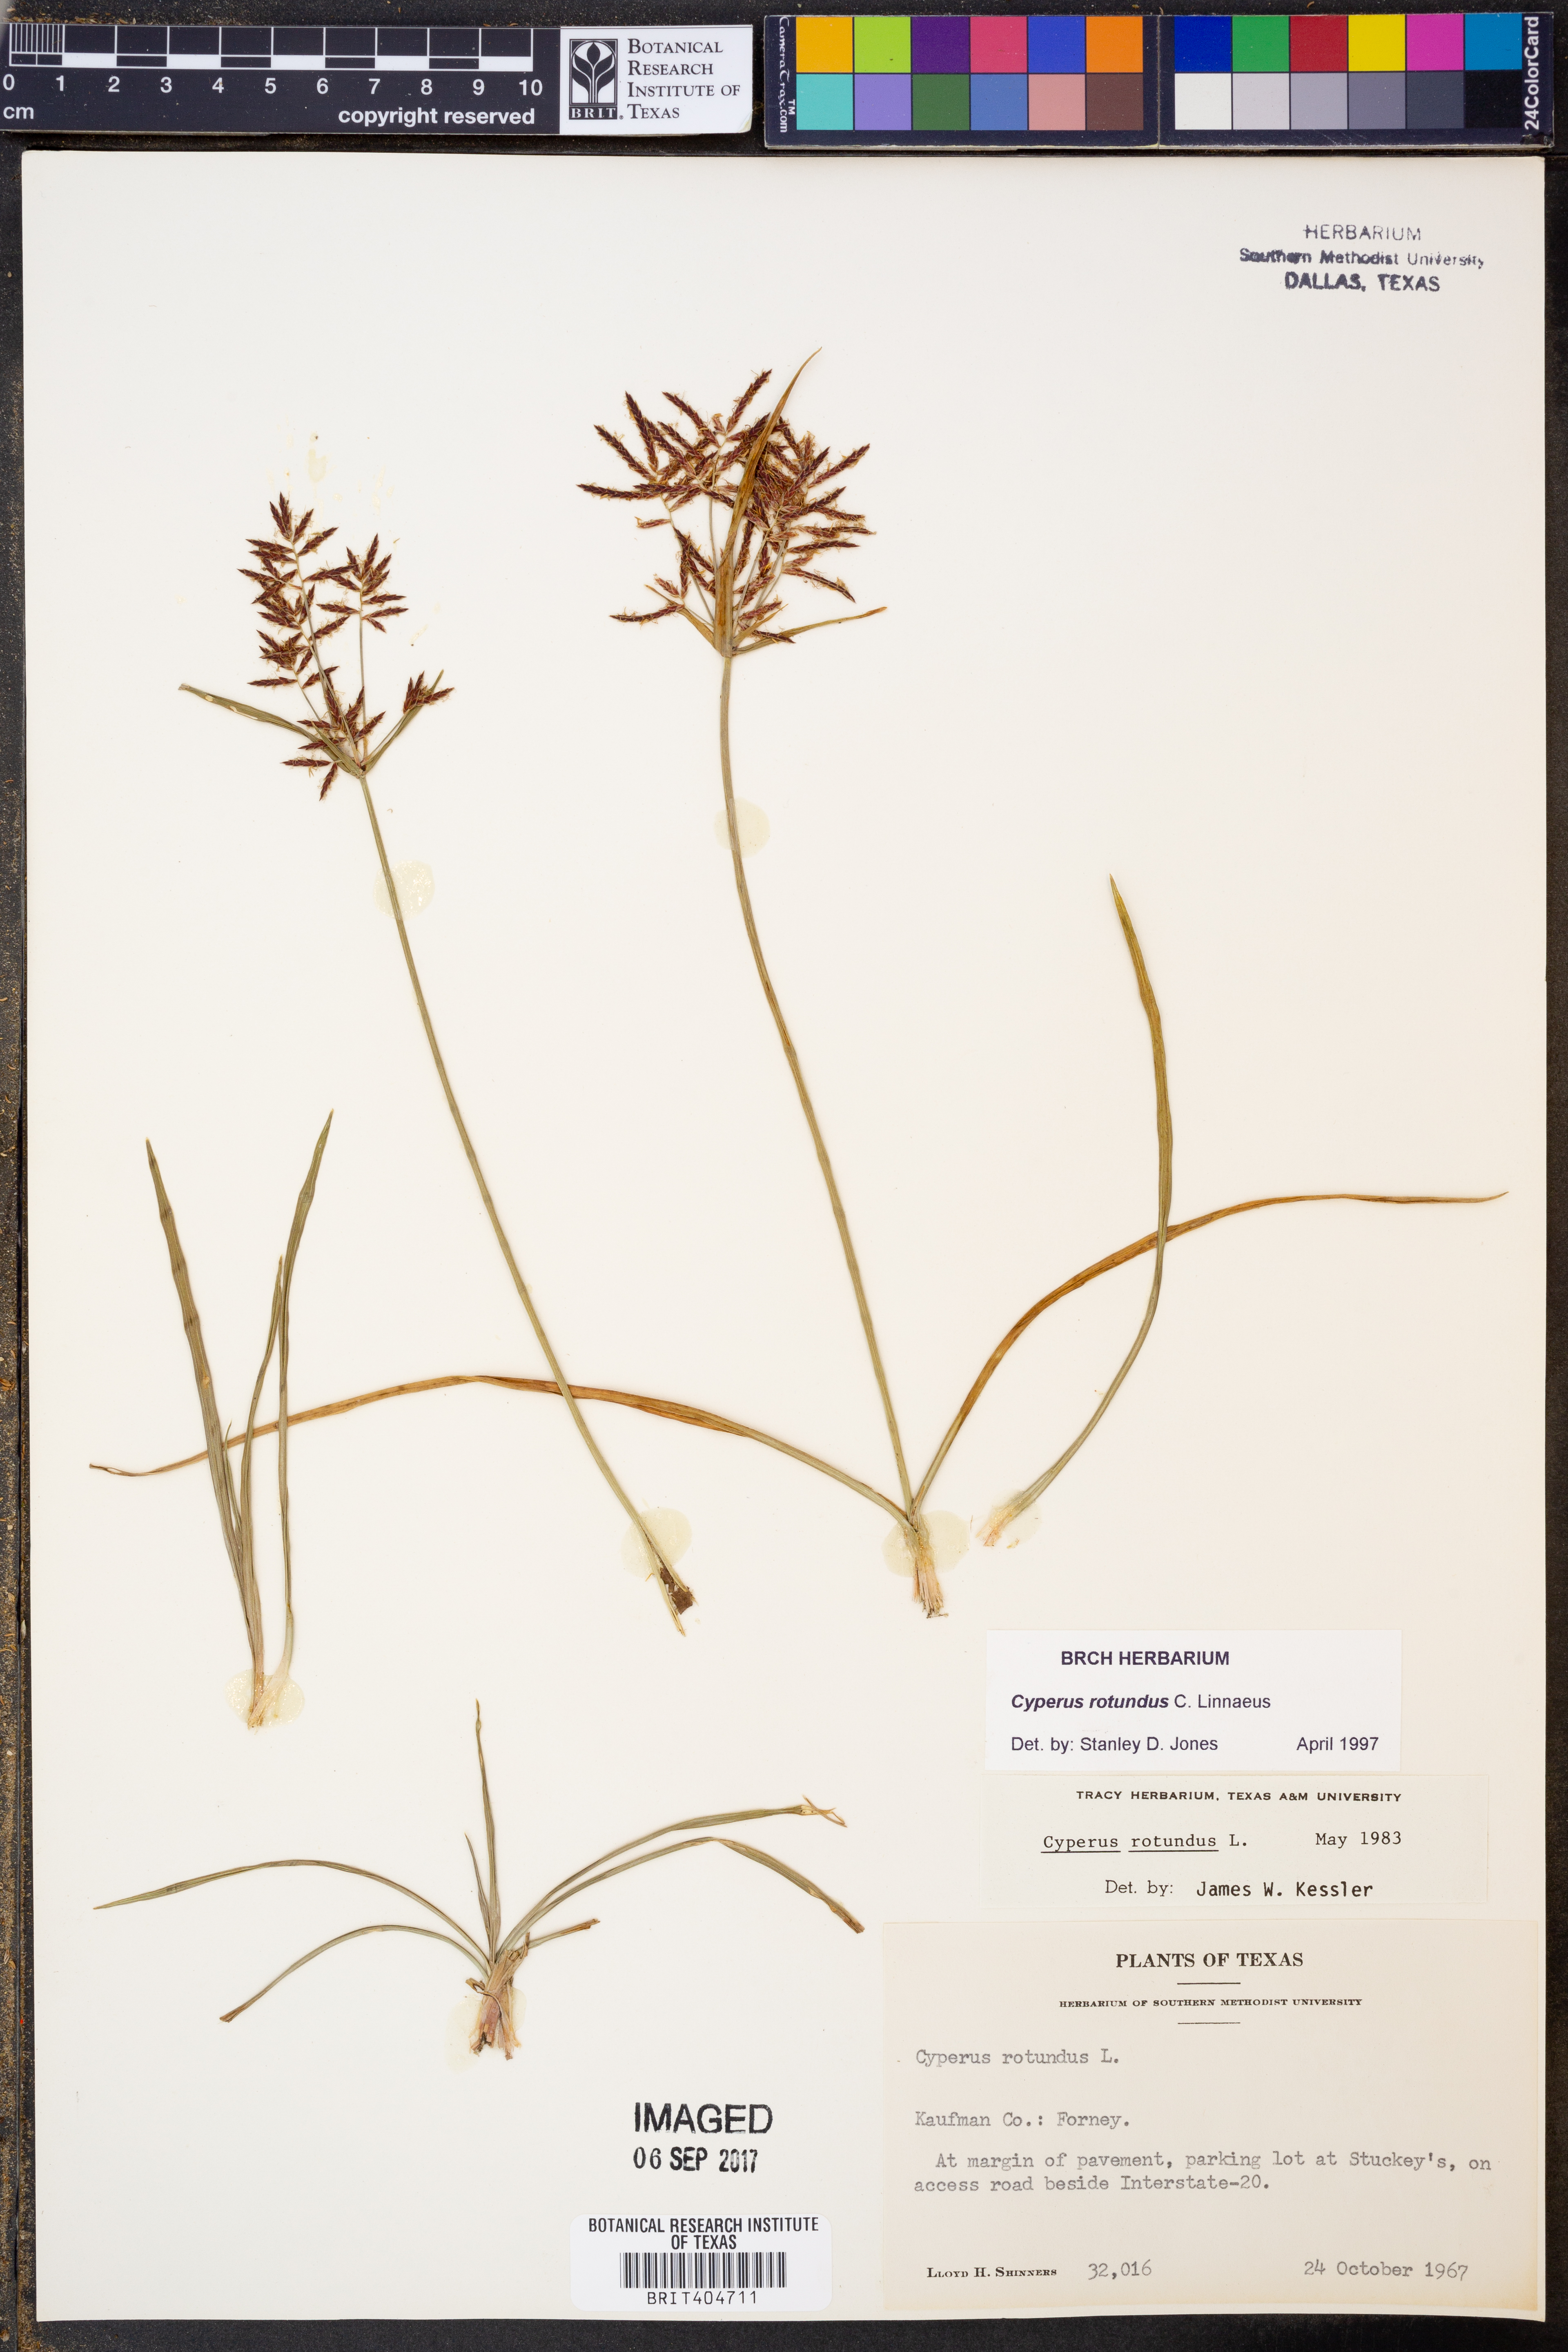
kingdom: Plantae
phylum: Tracheophyta
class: Liliopsida
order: Poales
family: Cyperaceae
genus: Cyperus
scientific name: Cyperus rotundus
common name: Nutgrass
